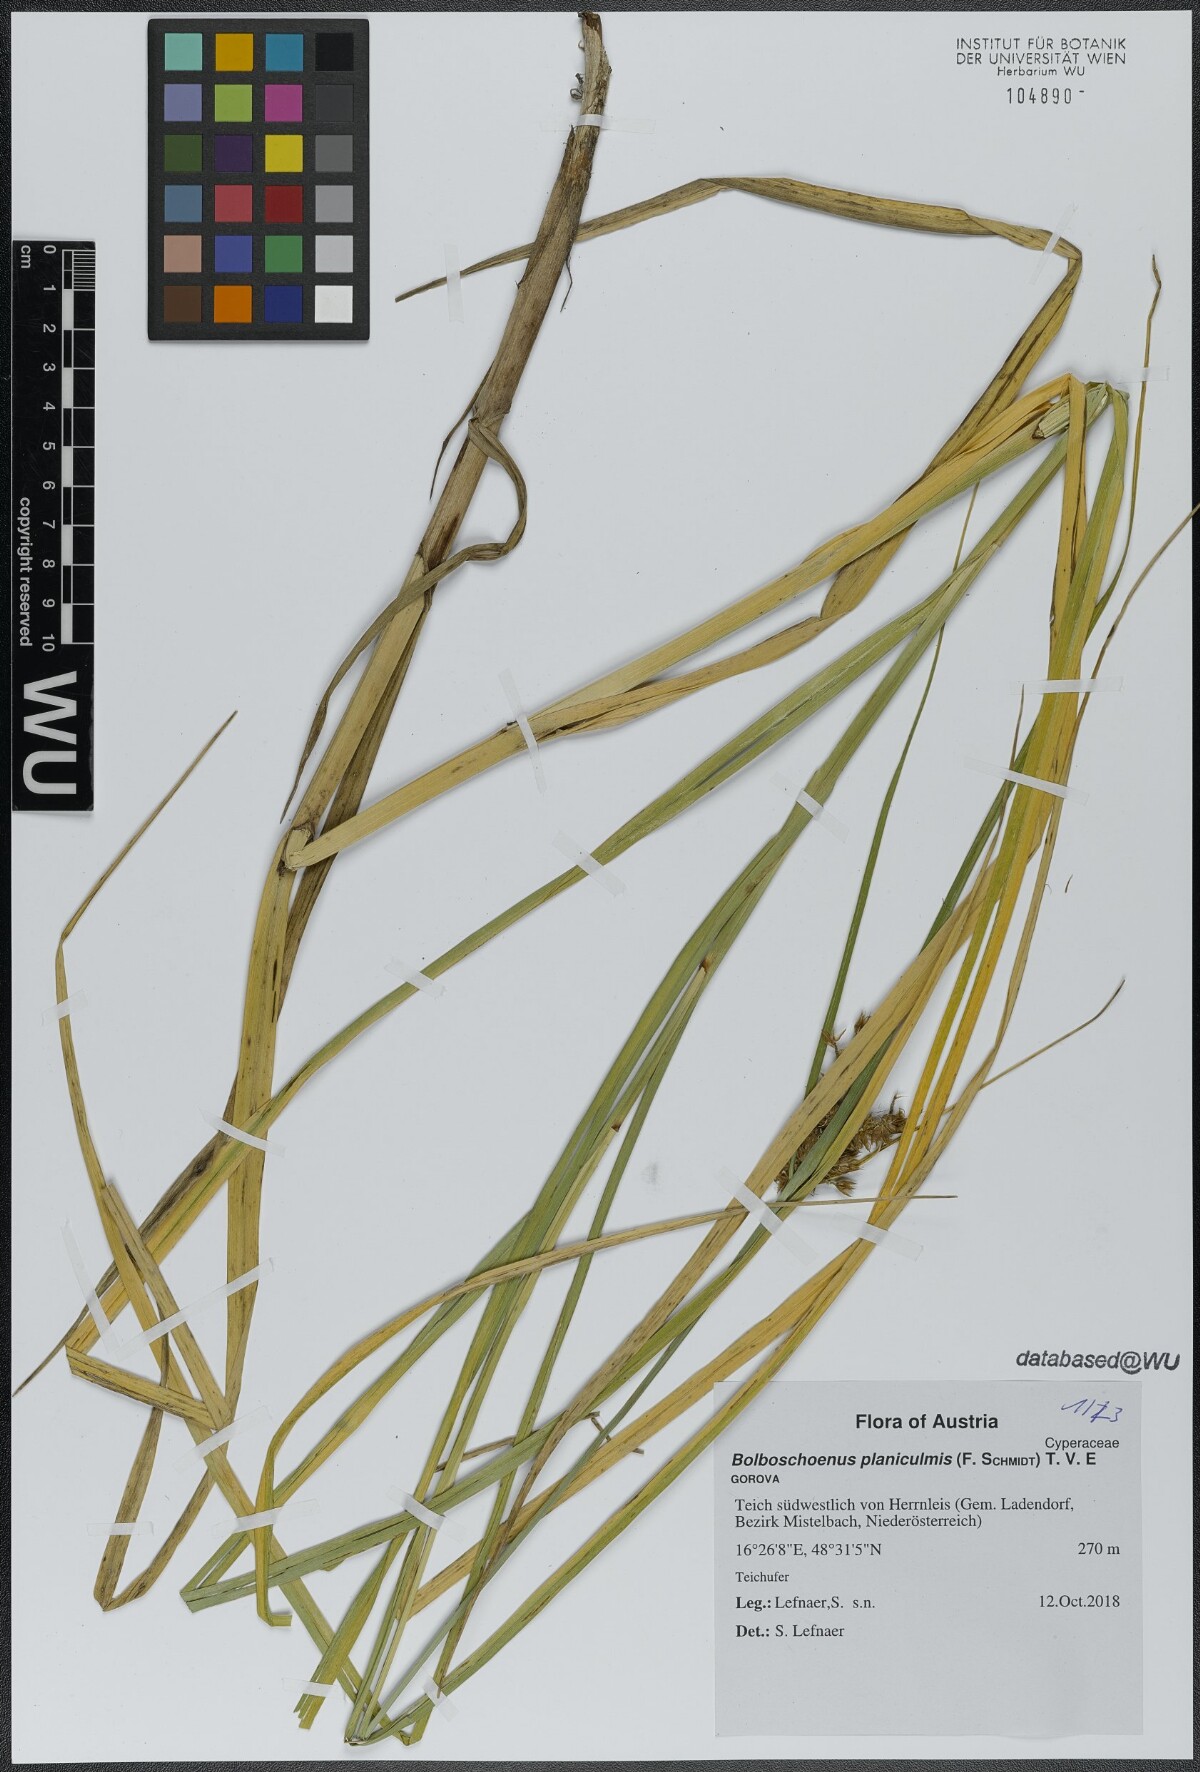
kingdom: Plantae
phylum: Tracheophyta
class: Liliopsida
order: Poales
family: Cyperaceae
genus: Bolboschoenus
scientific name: Bolboschoenus planiculmis
